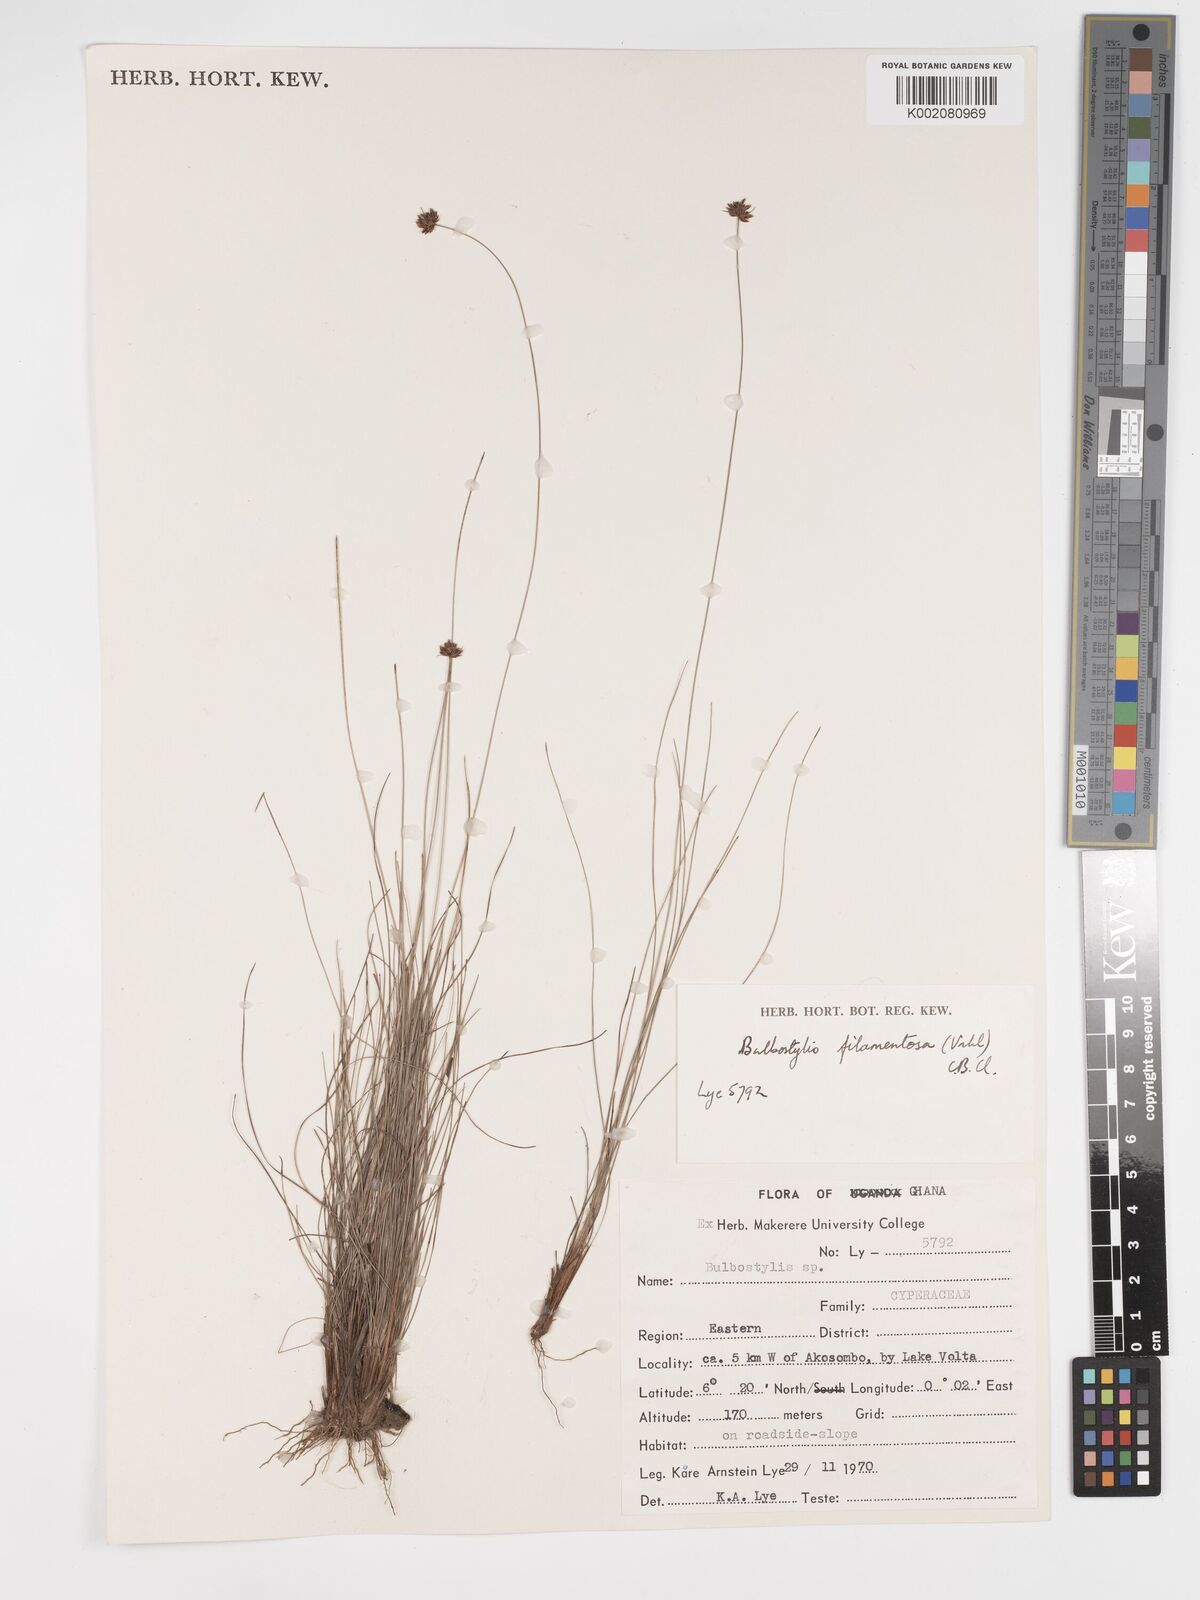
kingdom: Plantae
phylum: Tracheophyta
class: Liliopsida
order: Poales
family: Cyperaceae
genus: Bulbostylis
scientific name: Bulbostylis filamentosa
